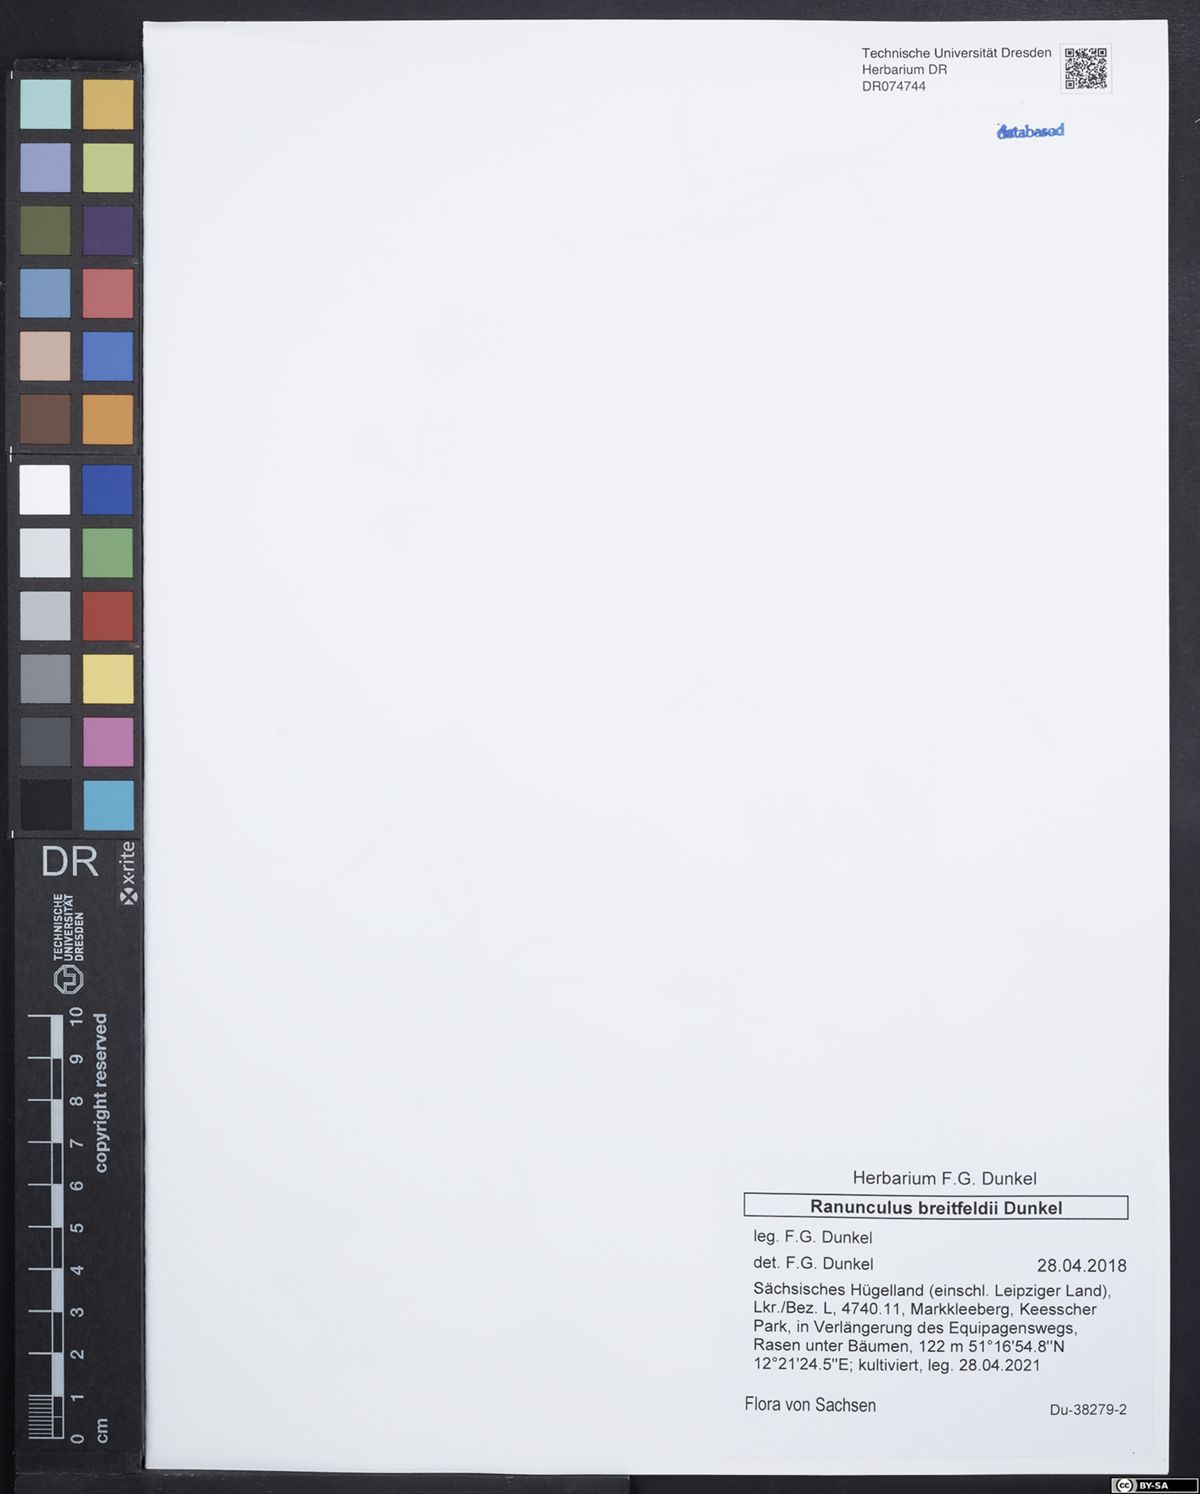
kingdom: Plantae
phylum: Tracheophyta
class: Magnoliopsida
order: Ranunculales
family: Ranunculaceae
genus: Ranunculus
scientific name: Ranunculus breitfeldii
